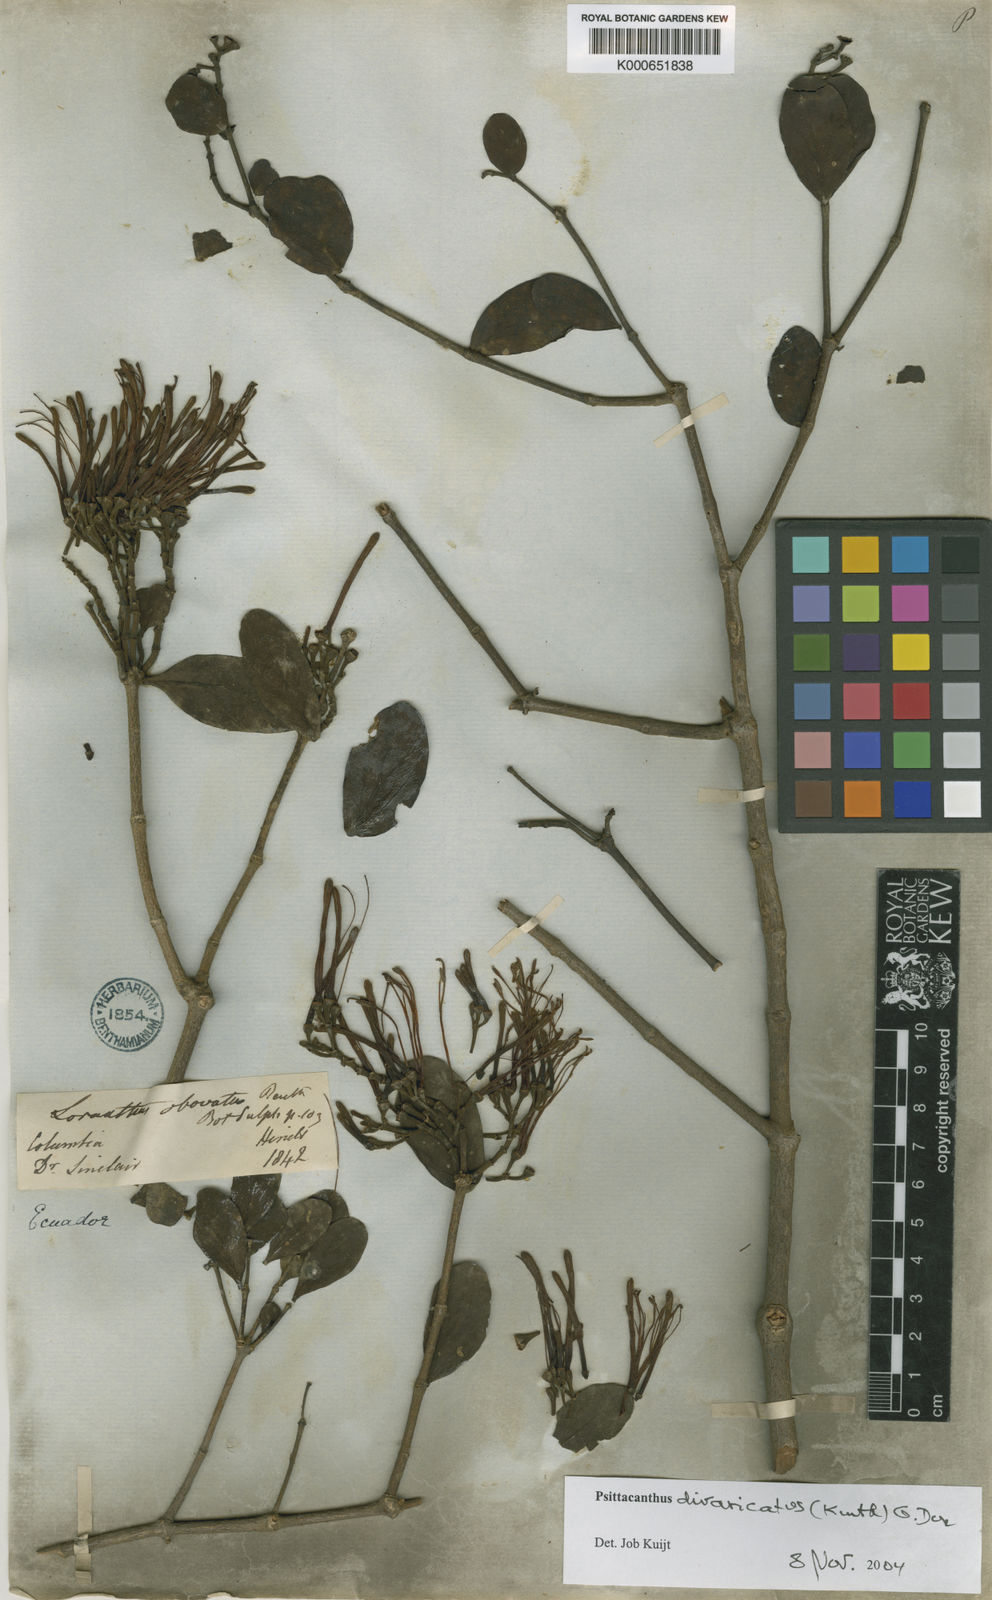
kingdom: Plantae
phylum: Tracheophyta
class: Magnoliopsida
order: Santalales
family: Loranthaceae
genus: Psittacanthus
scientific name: Psittacanthus divaricatus
